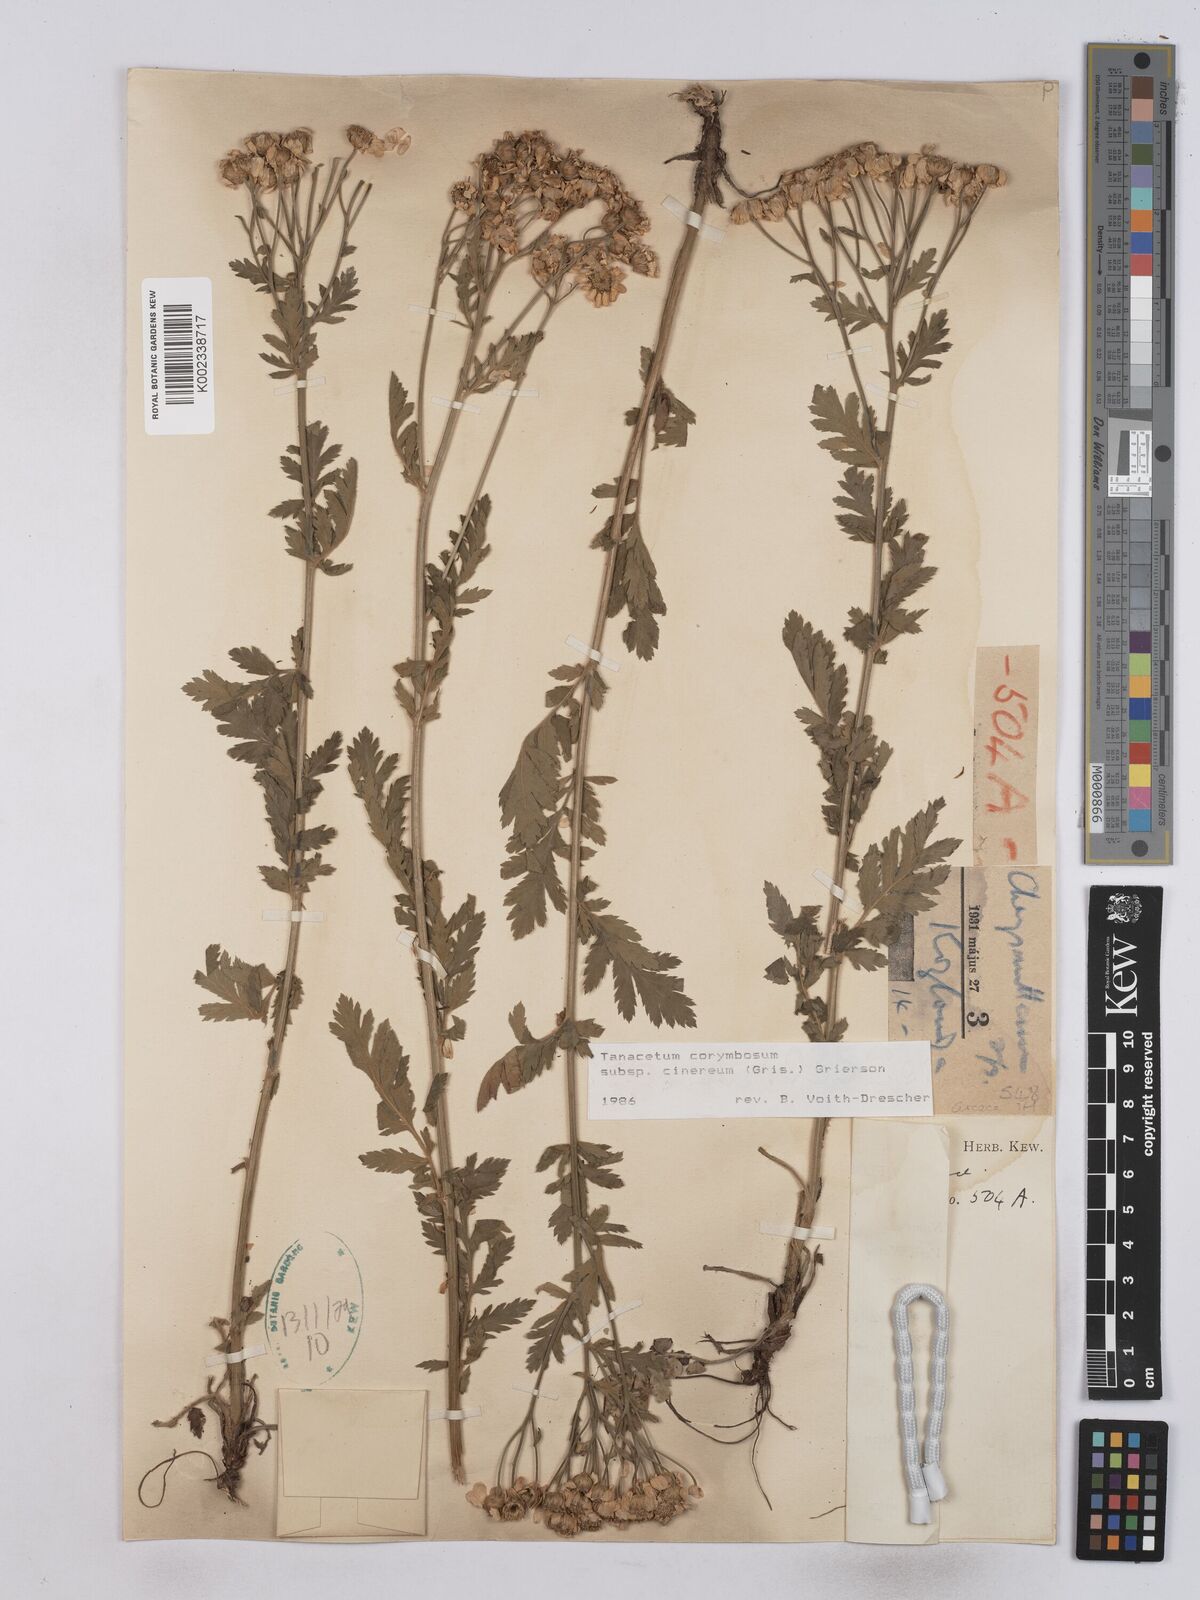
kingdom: Plantae
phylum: Tracheophyta
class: Magnoliopsida
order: Asterales
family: Asteraceae
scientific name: Asteraceae
